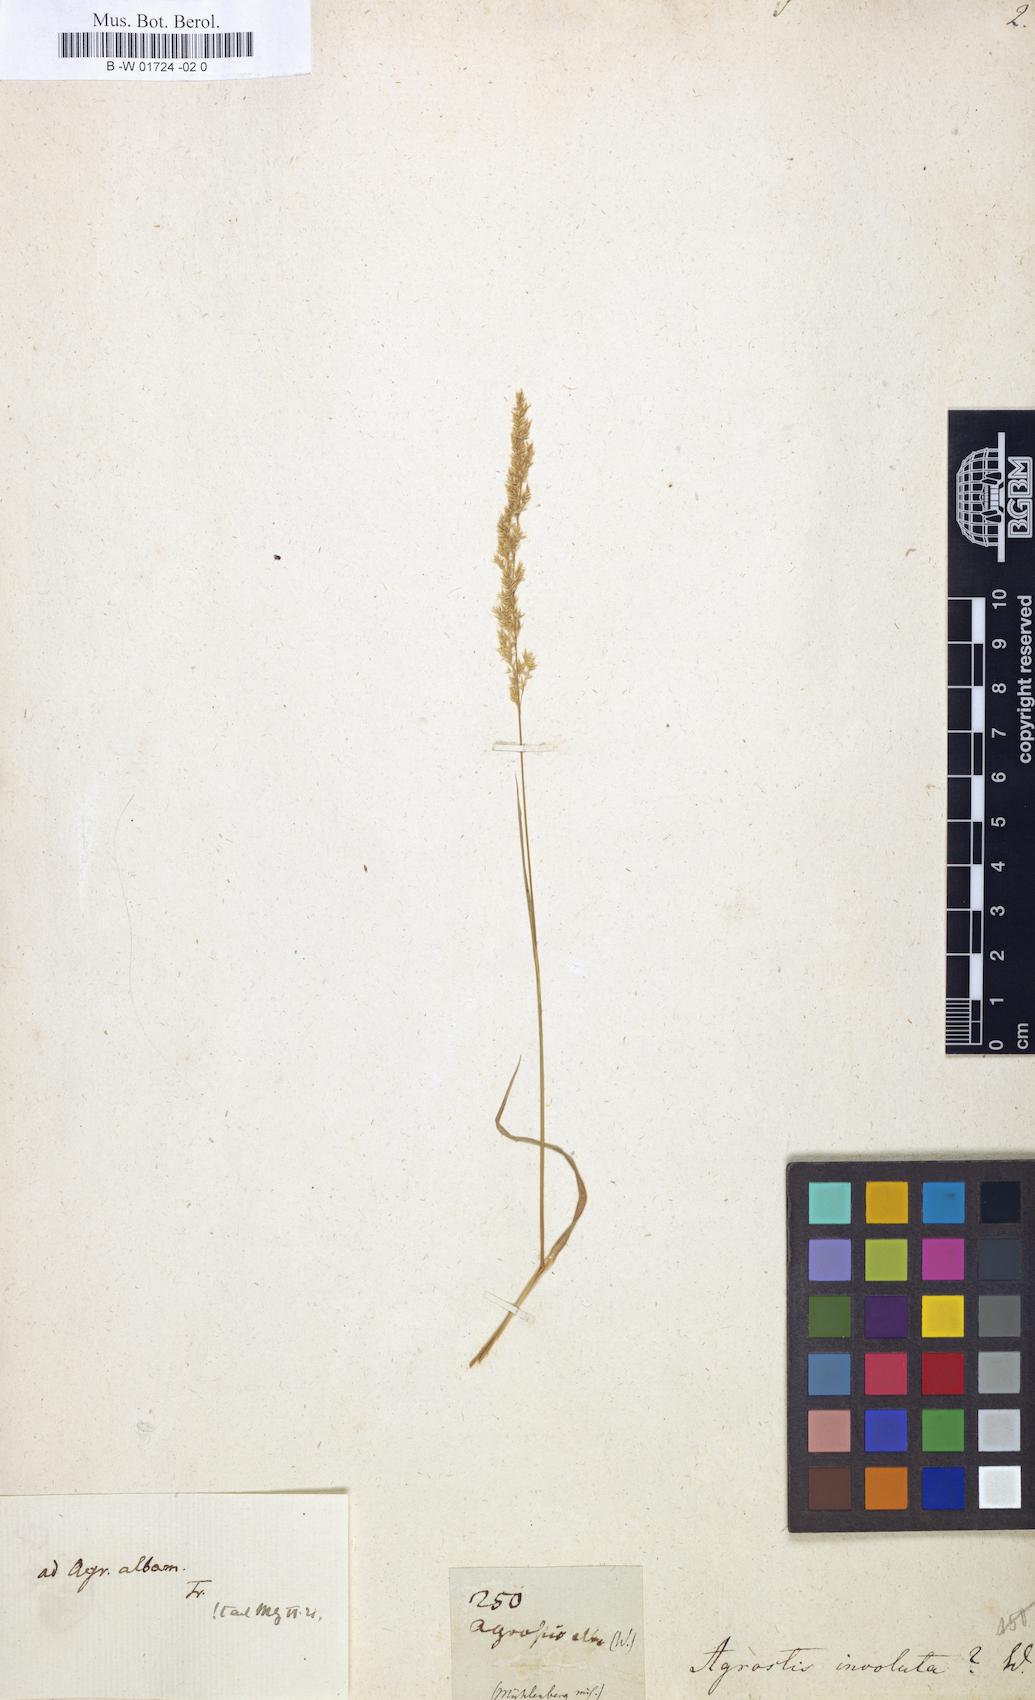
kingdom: Plantae
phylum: Tracheophyta
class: Liliopsida
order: Poales
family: Poaceae
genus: Sporobolus
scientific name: Sporobolus spicatus
